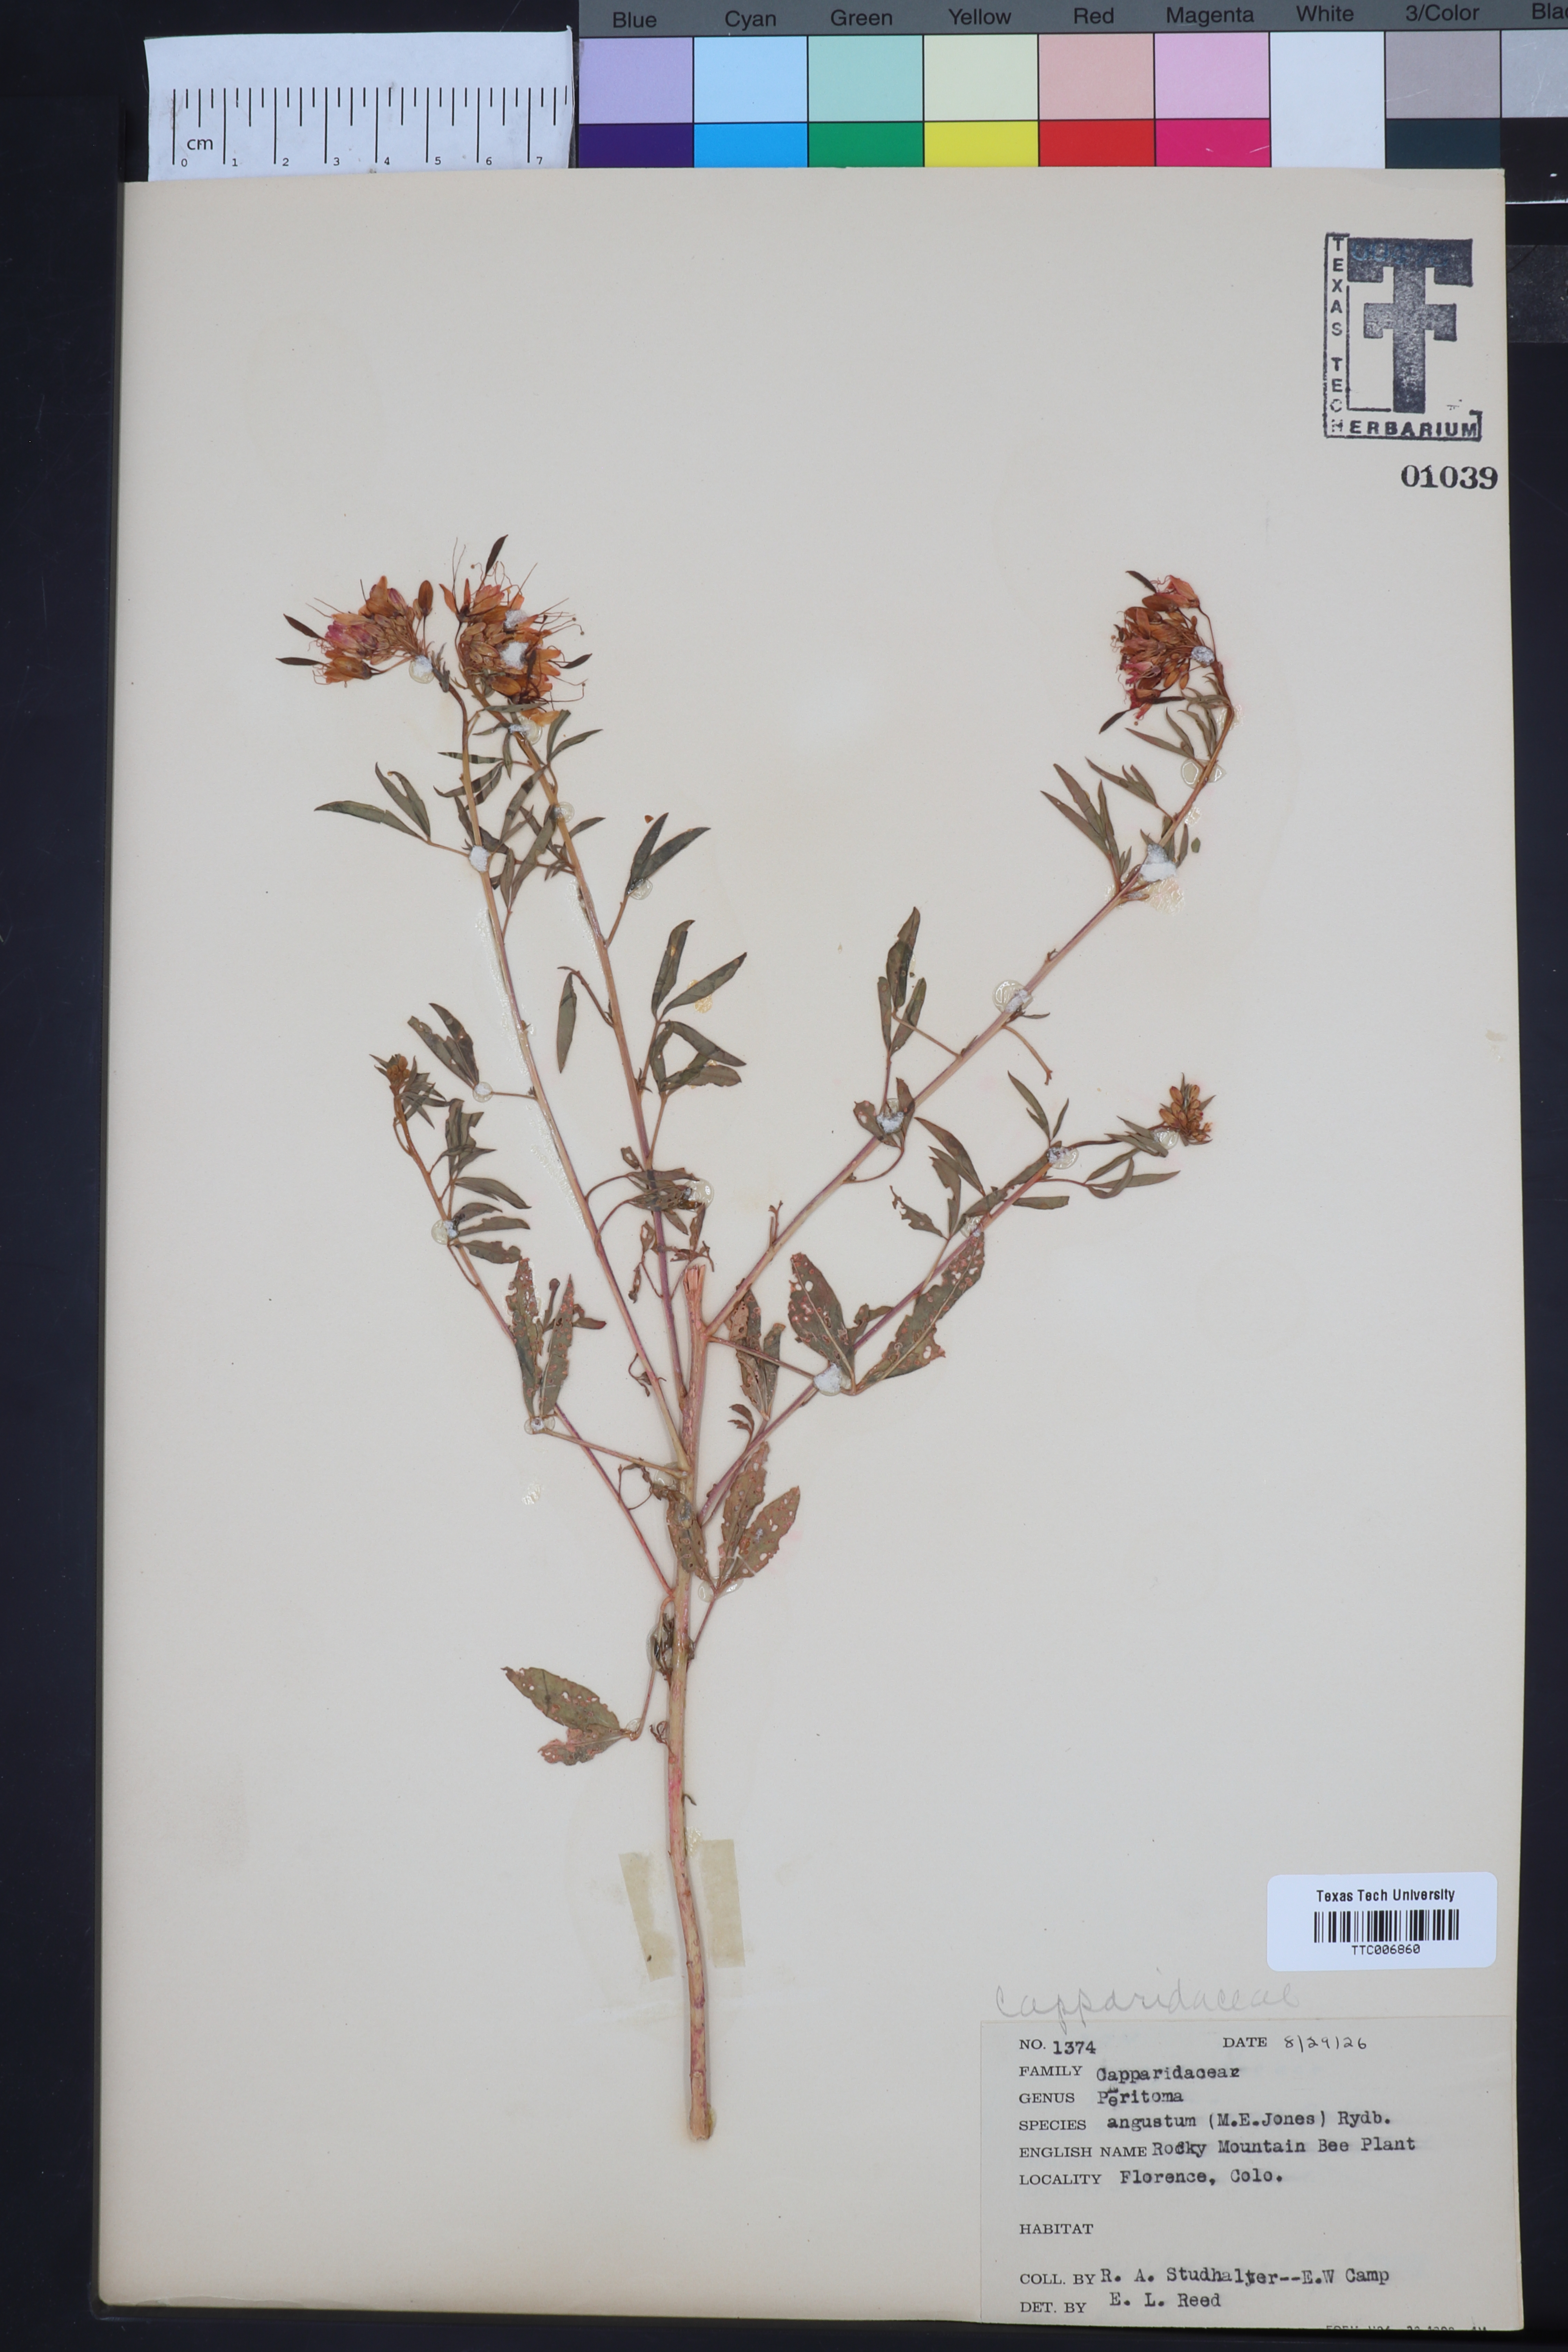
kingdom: Plantae
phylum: Tracheophyta
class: Magnoliopsida
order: Brassicales
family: Cleomaceae
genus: Cleomella
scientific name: Cleomella serrulata
